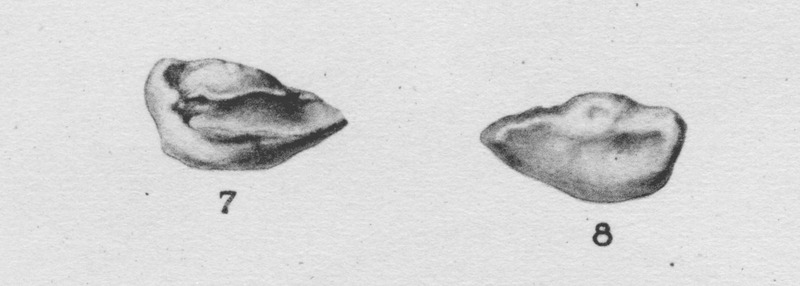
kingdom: Animalia
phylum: Chordata
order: Perciformes
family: Carangidae
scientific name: Carangidae
